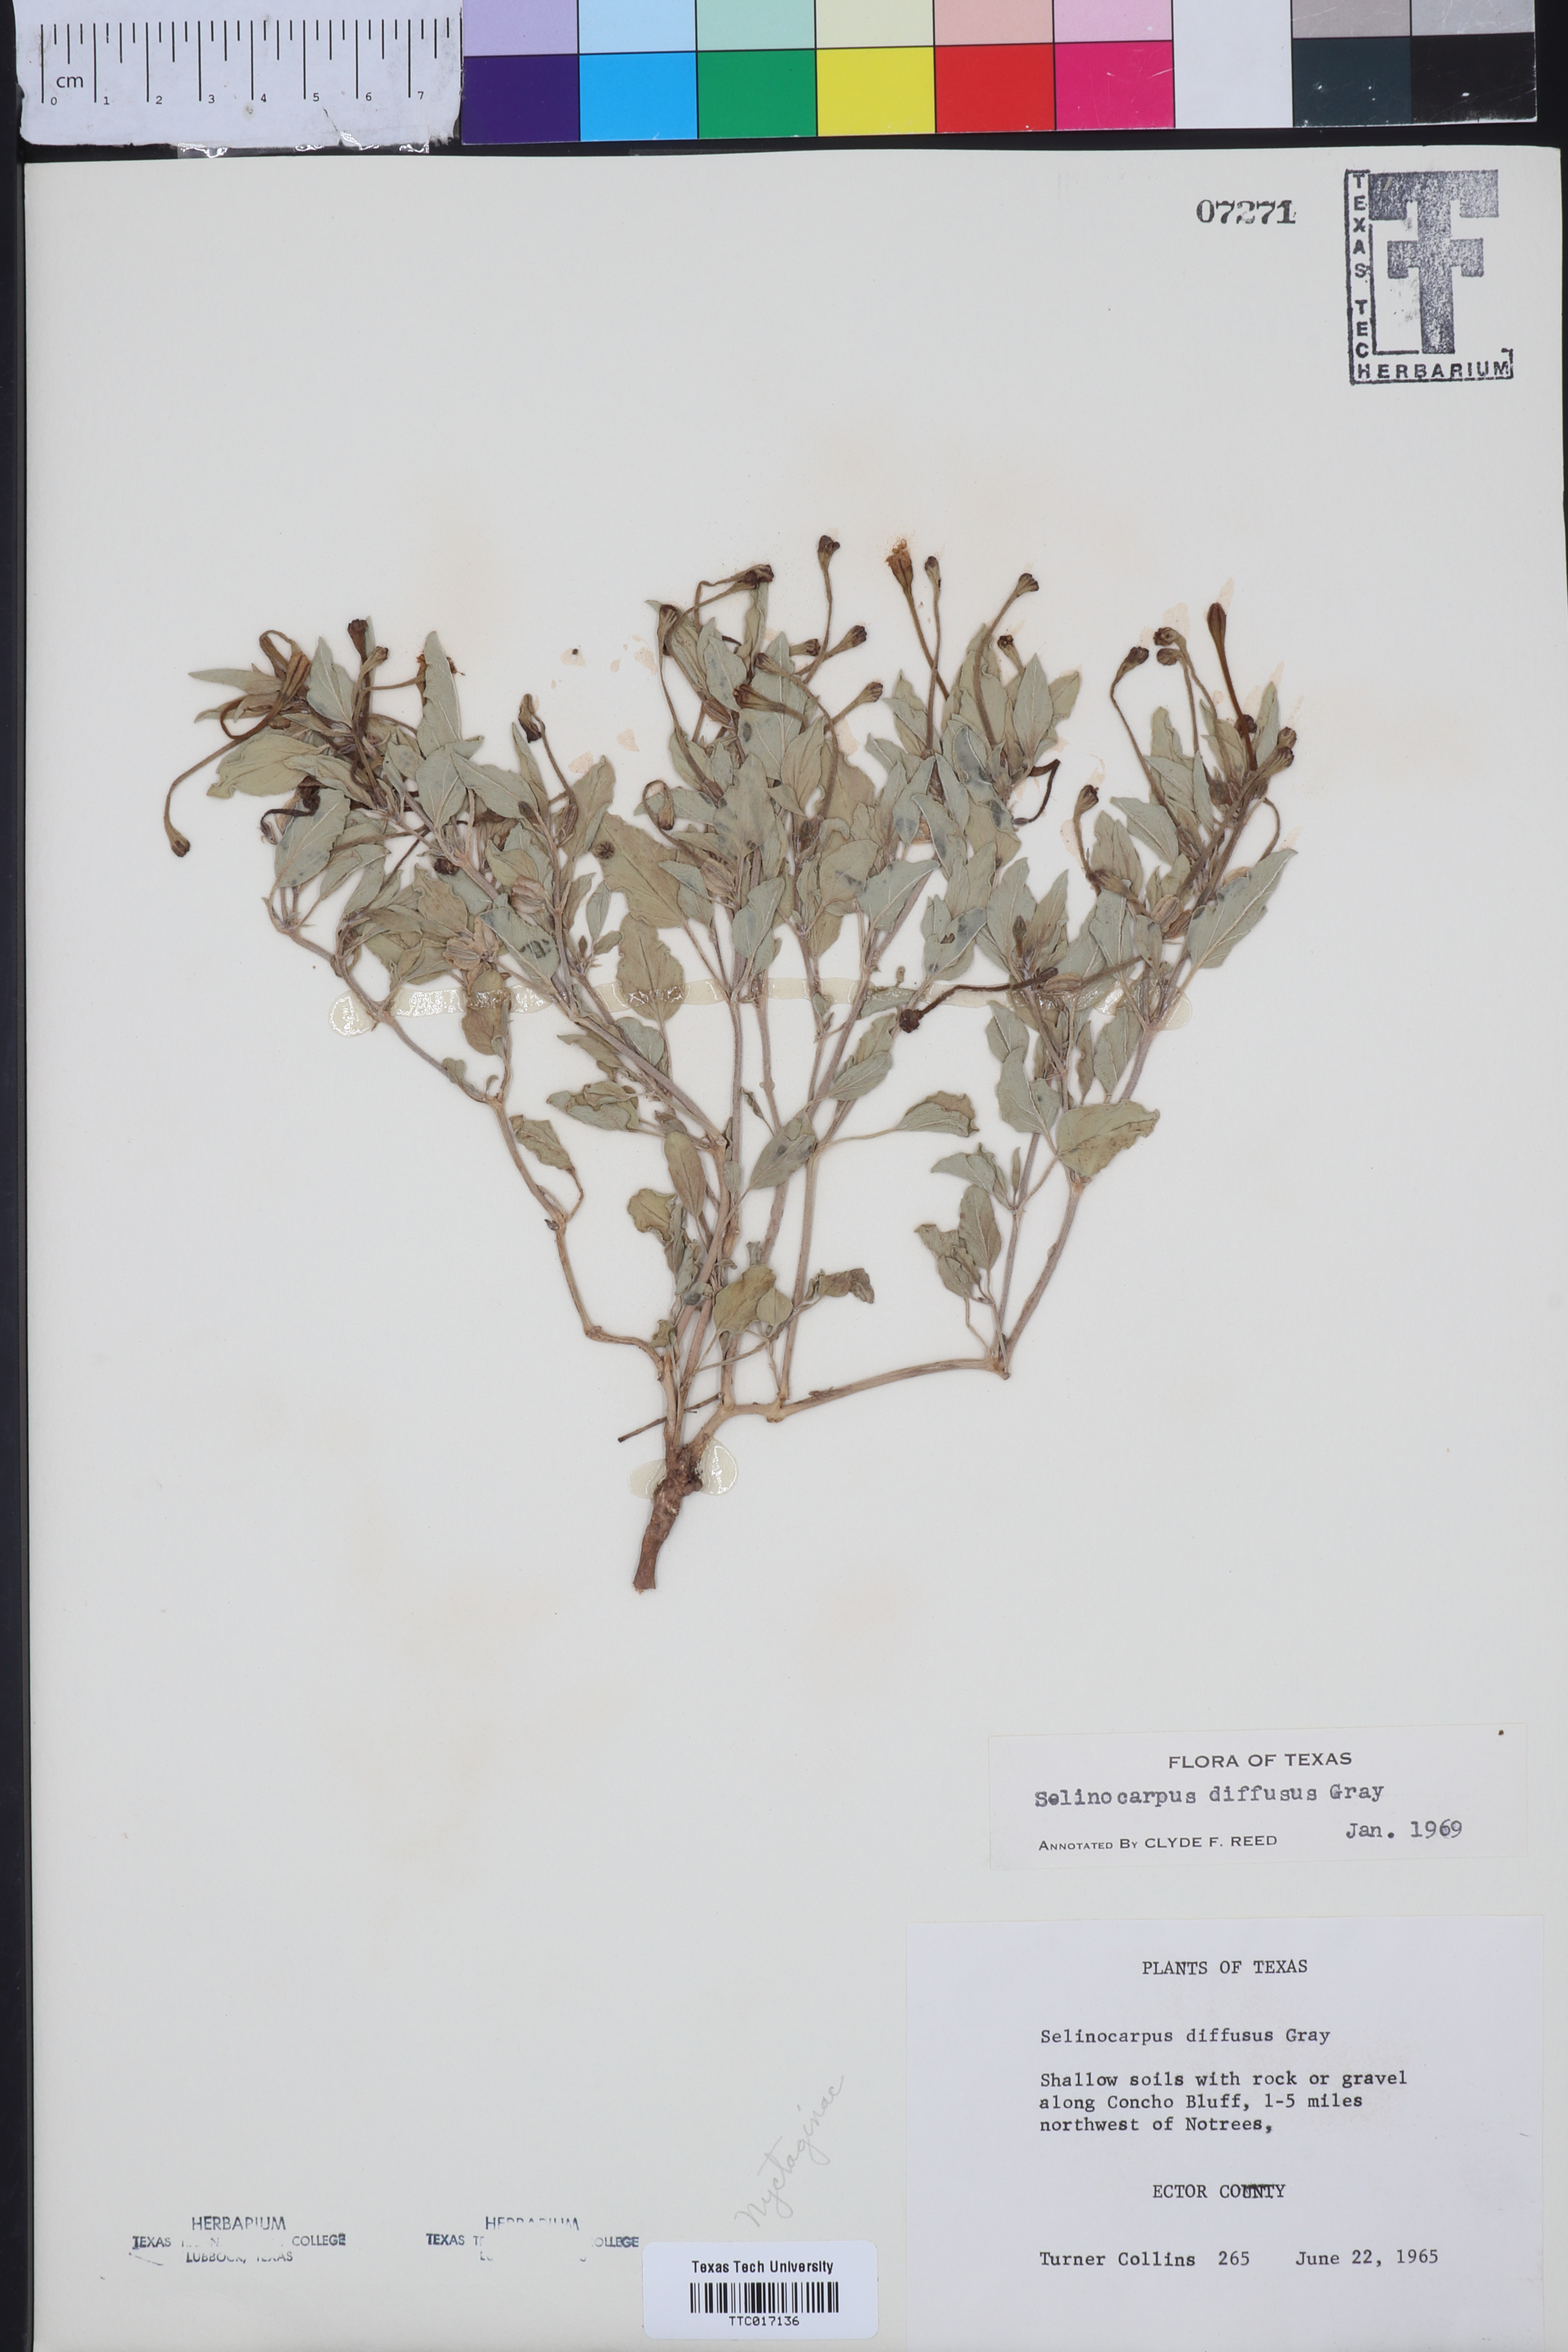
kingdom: Plantae
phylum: Tracheophyta
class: Magnoliopsida
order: Caryophyllales
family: Nyctaginaceae
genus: Acleisanthes
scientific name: Acleisanthes diffusa
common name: Spreading moonpod
